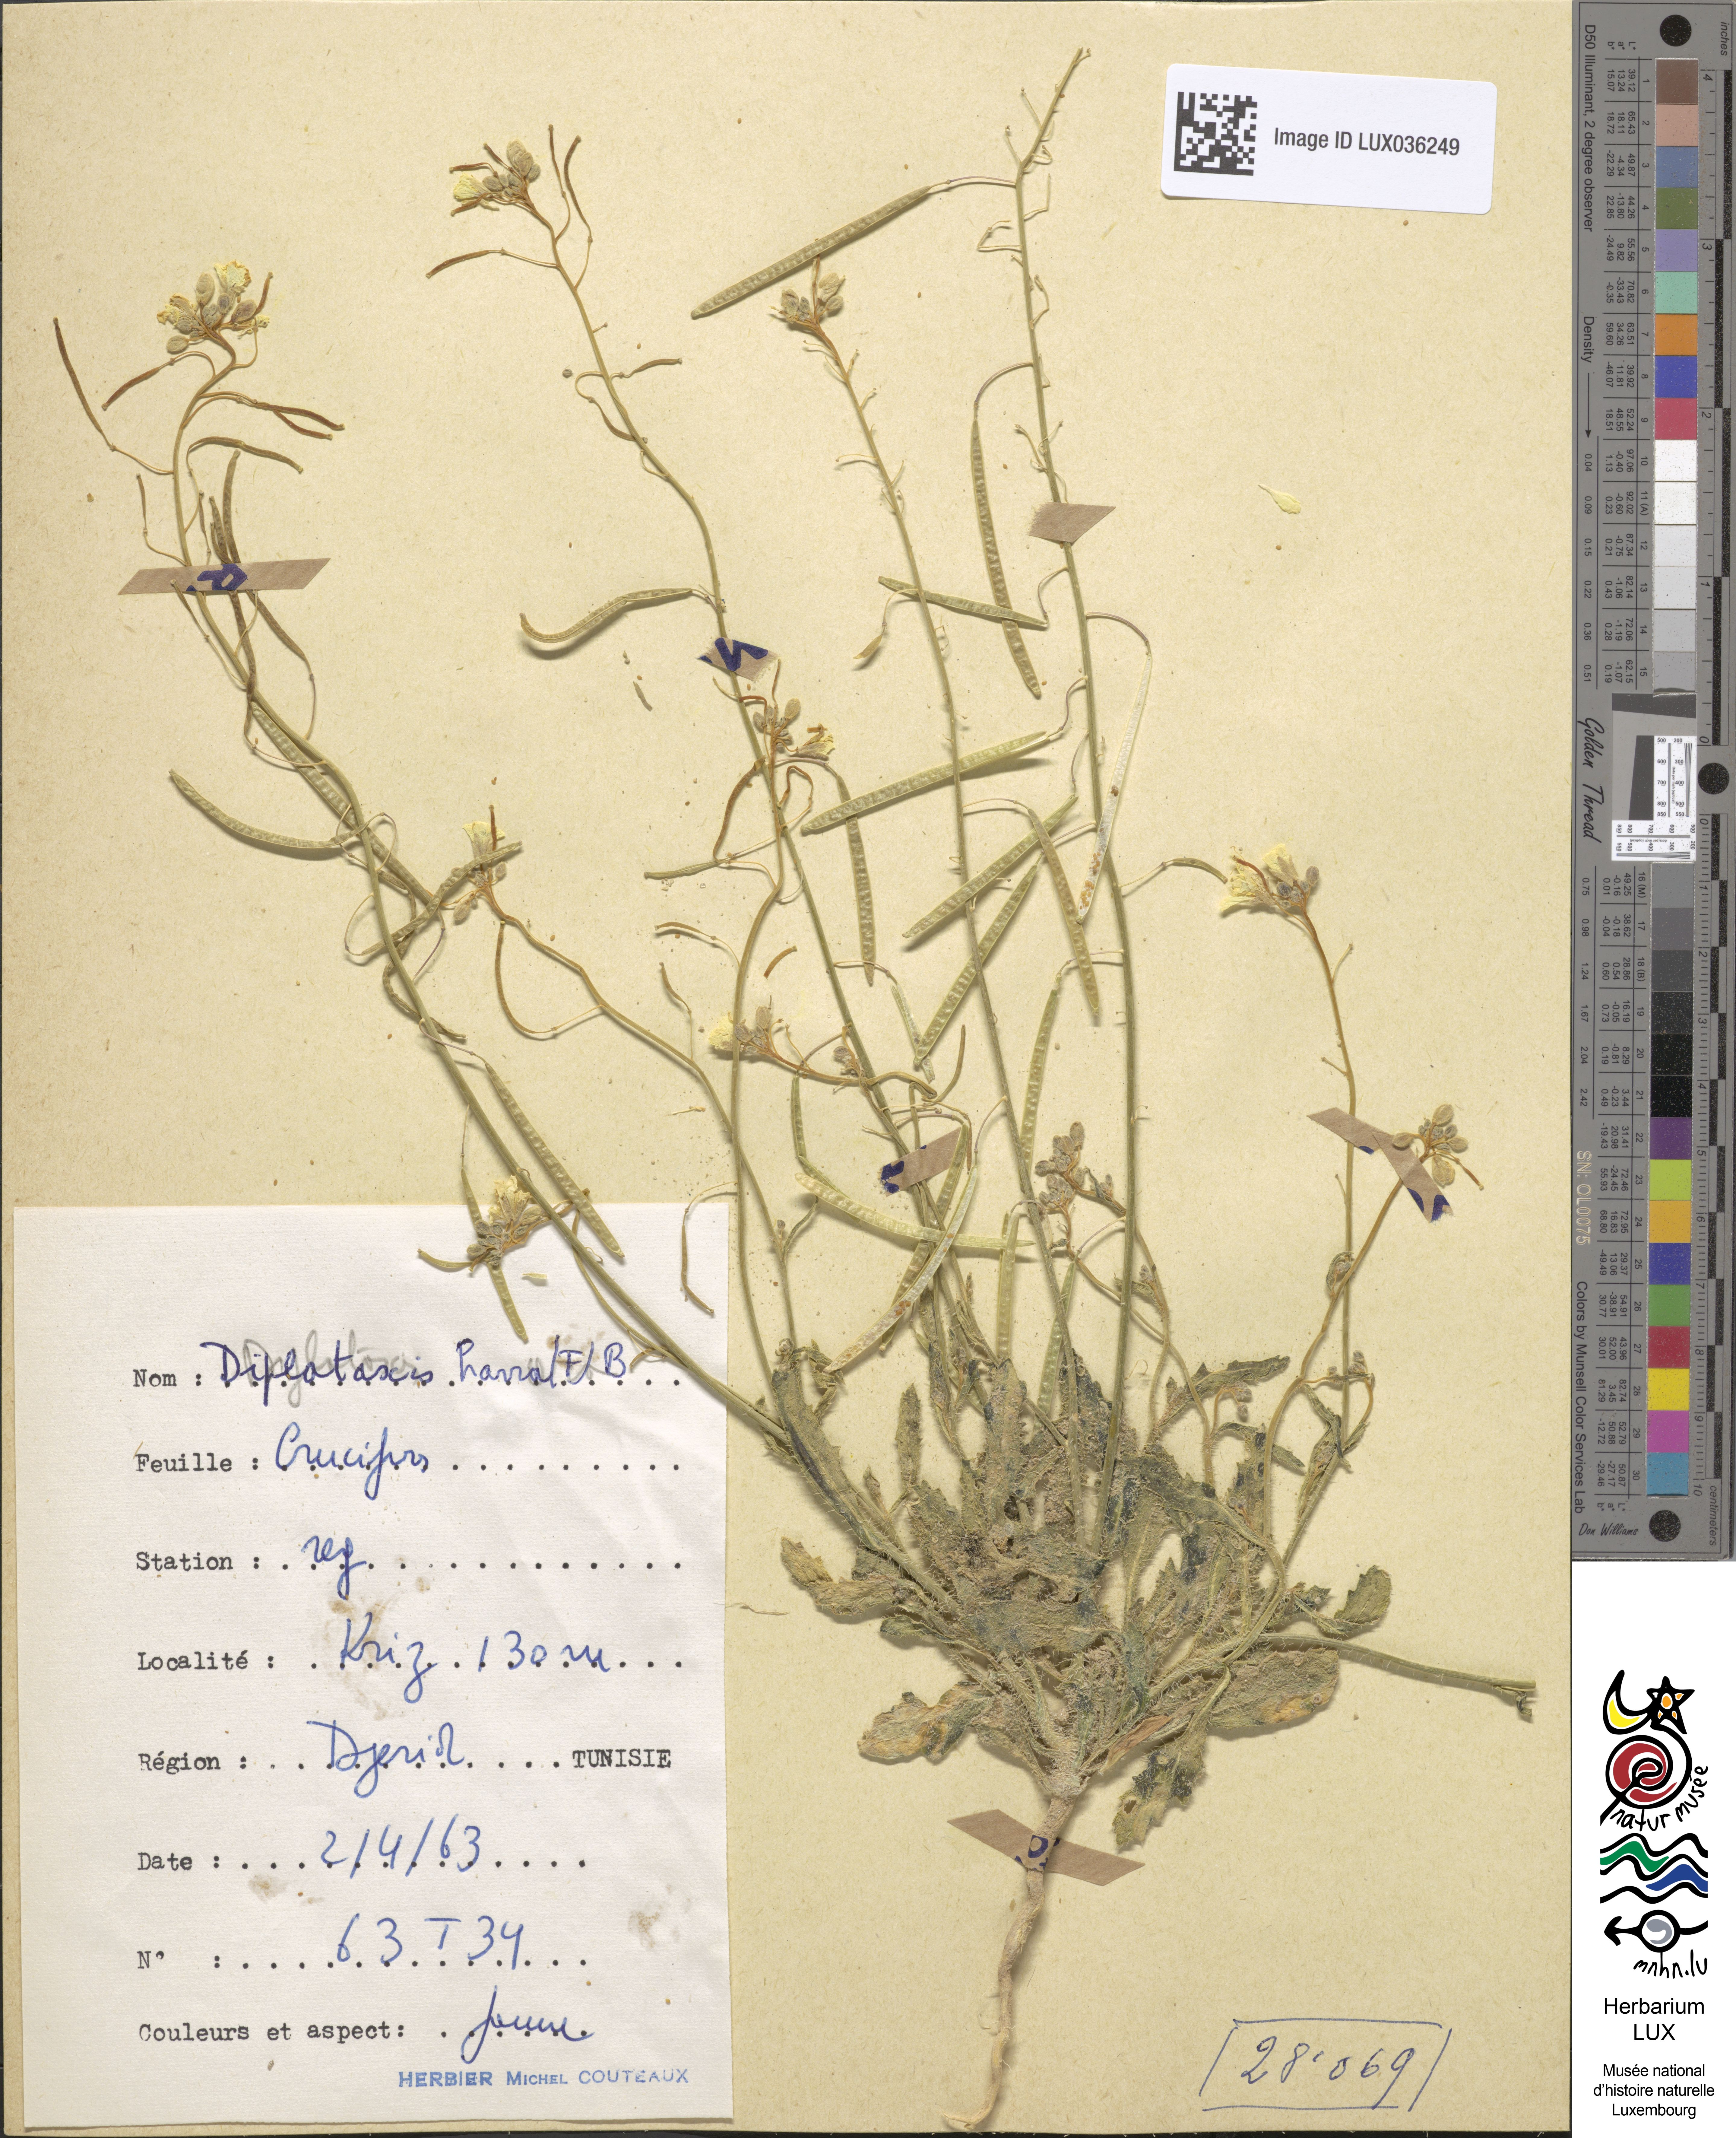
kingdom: Plantae
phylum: Tracheophyta
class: Magnoliopsida
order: Brassicales
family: Brassicaceae
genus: Diplotaxis
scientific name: Diplotaxis harra
